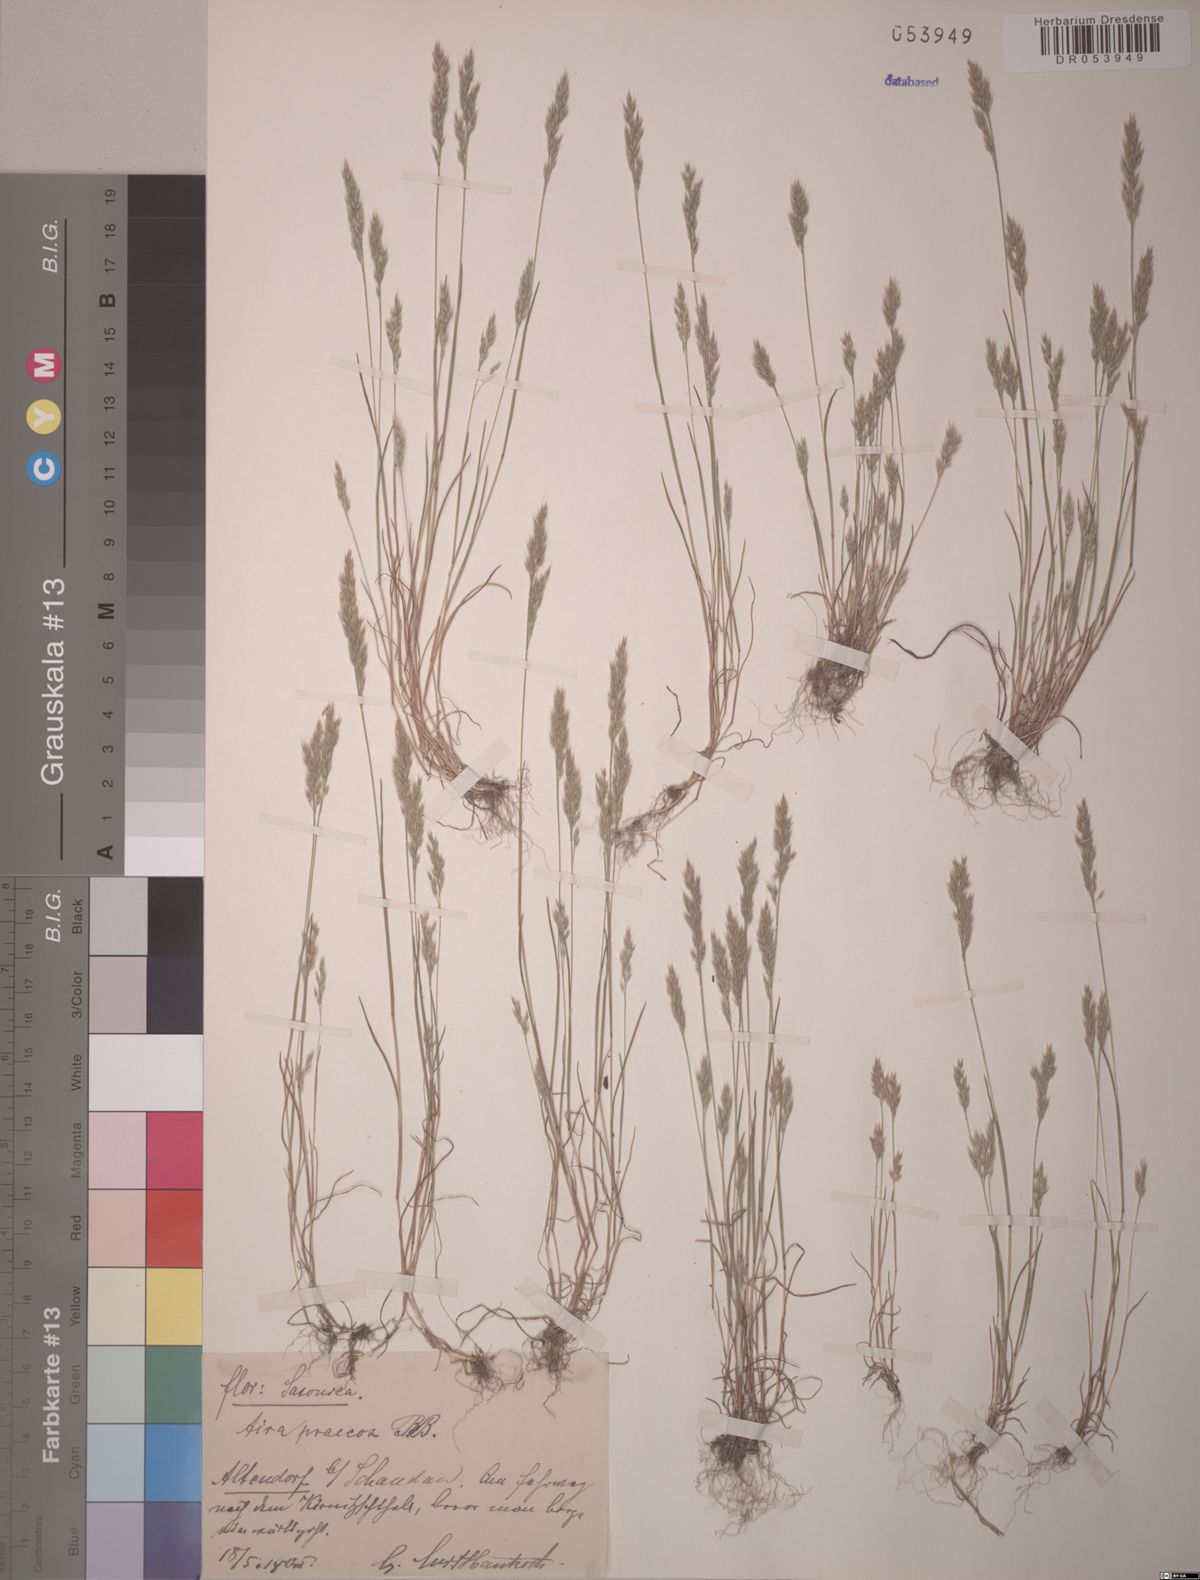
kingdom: Plantae
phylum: Tracheophyta
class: Liliopsida
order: Poales
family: Poaceae
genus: Aira
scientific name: Aira praecox
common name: Early hair-grass
